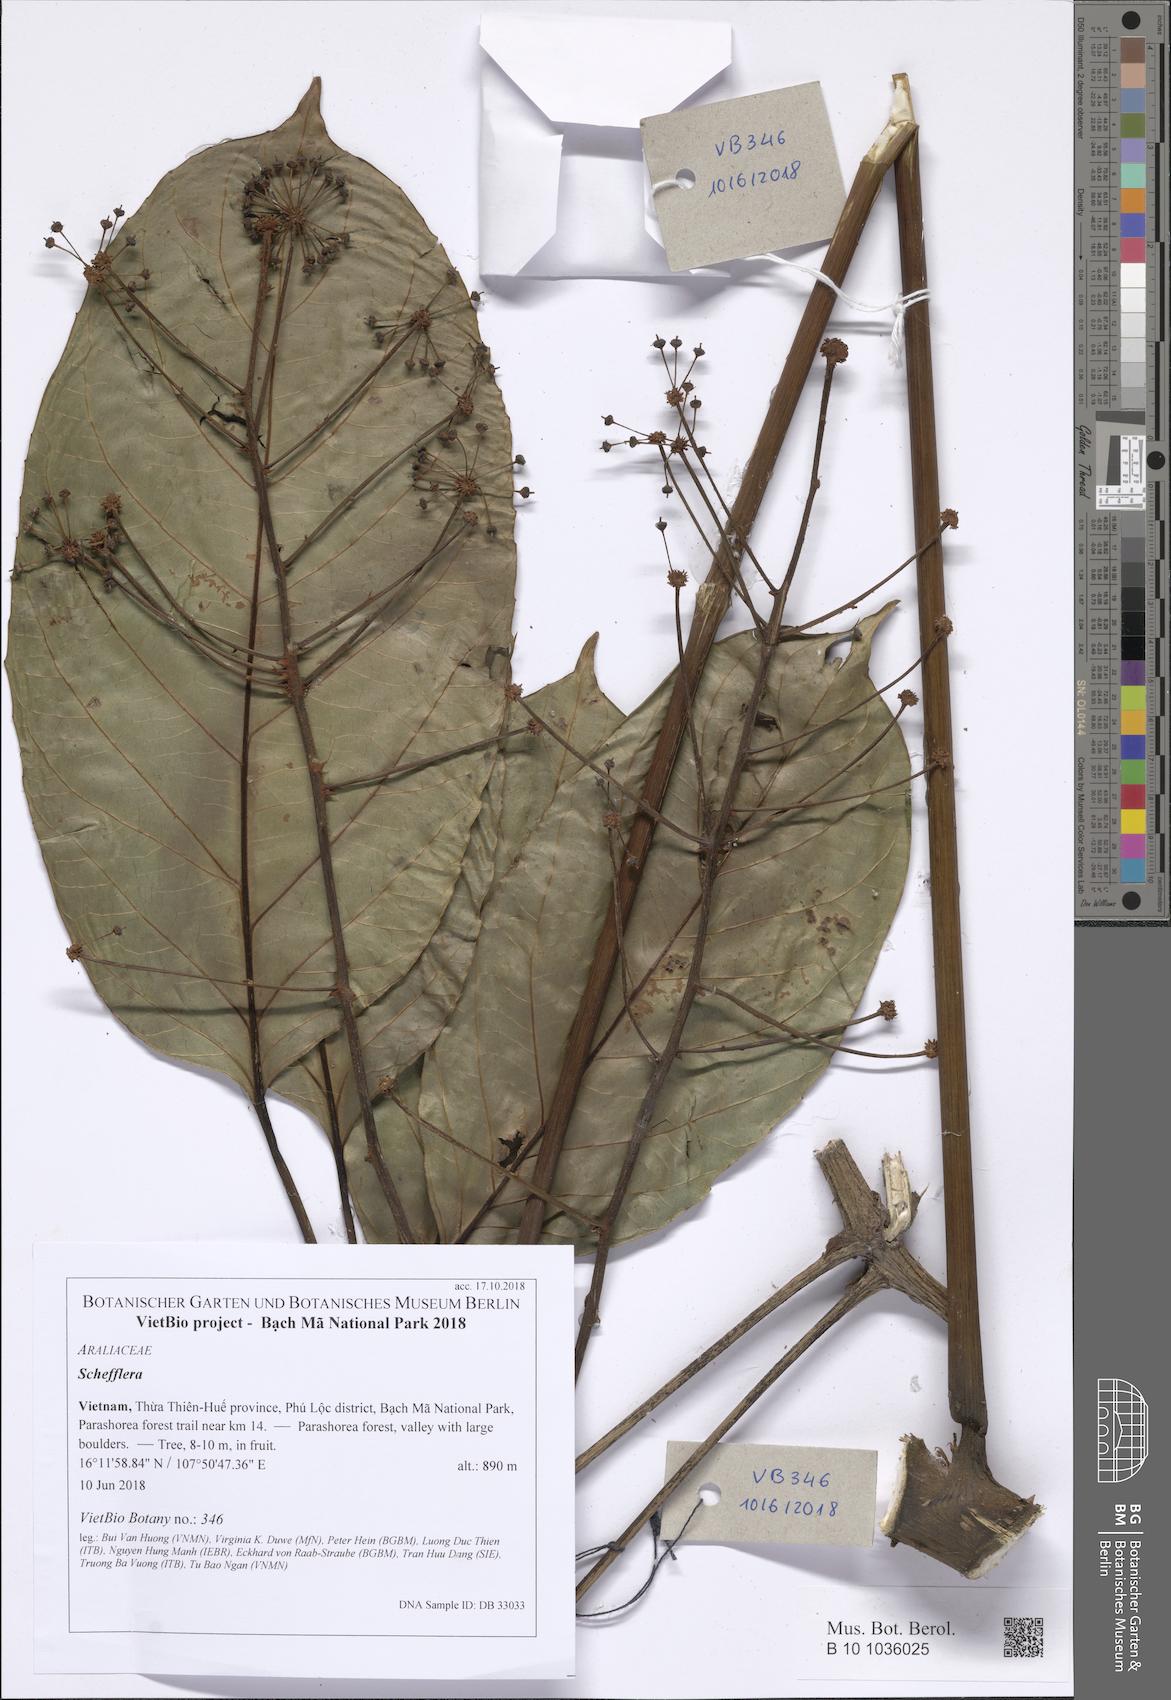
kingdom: Plantae
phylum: Tracheophyta
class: Magnoliopsida
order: Apiales
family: Araliaceae
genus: Brassaiopsis
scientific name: Brassaiopsis glomerulata
